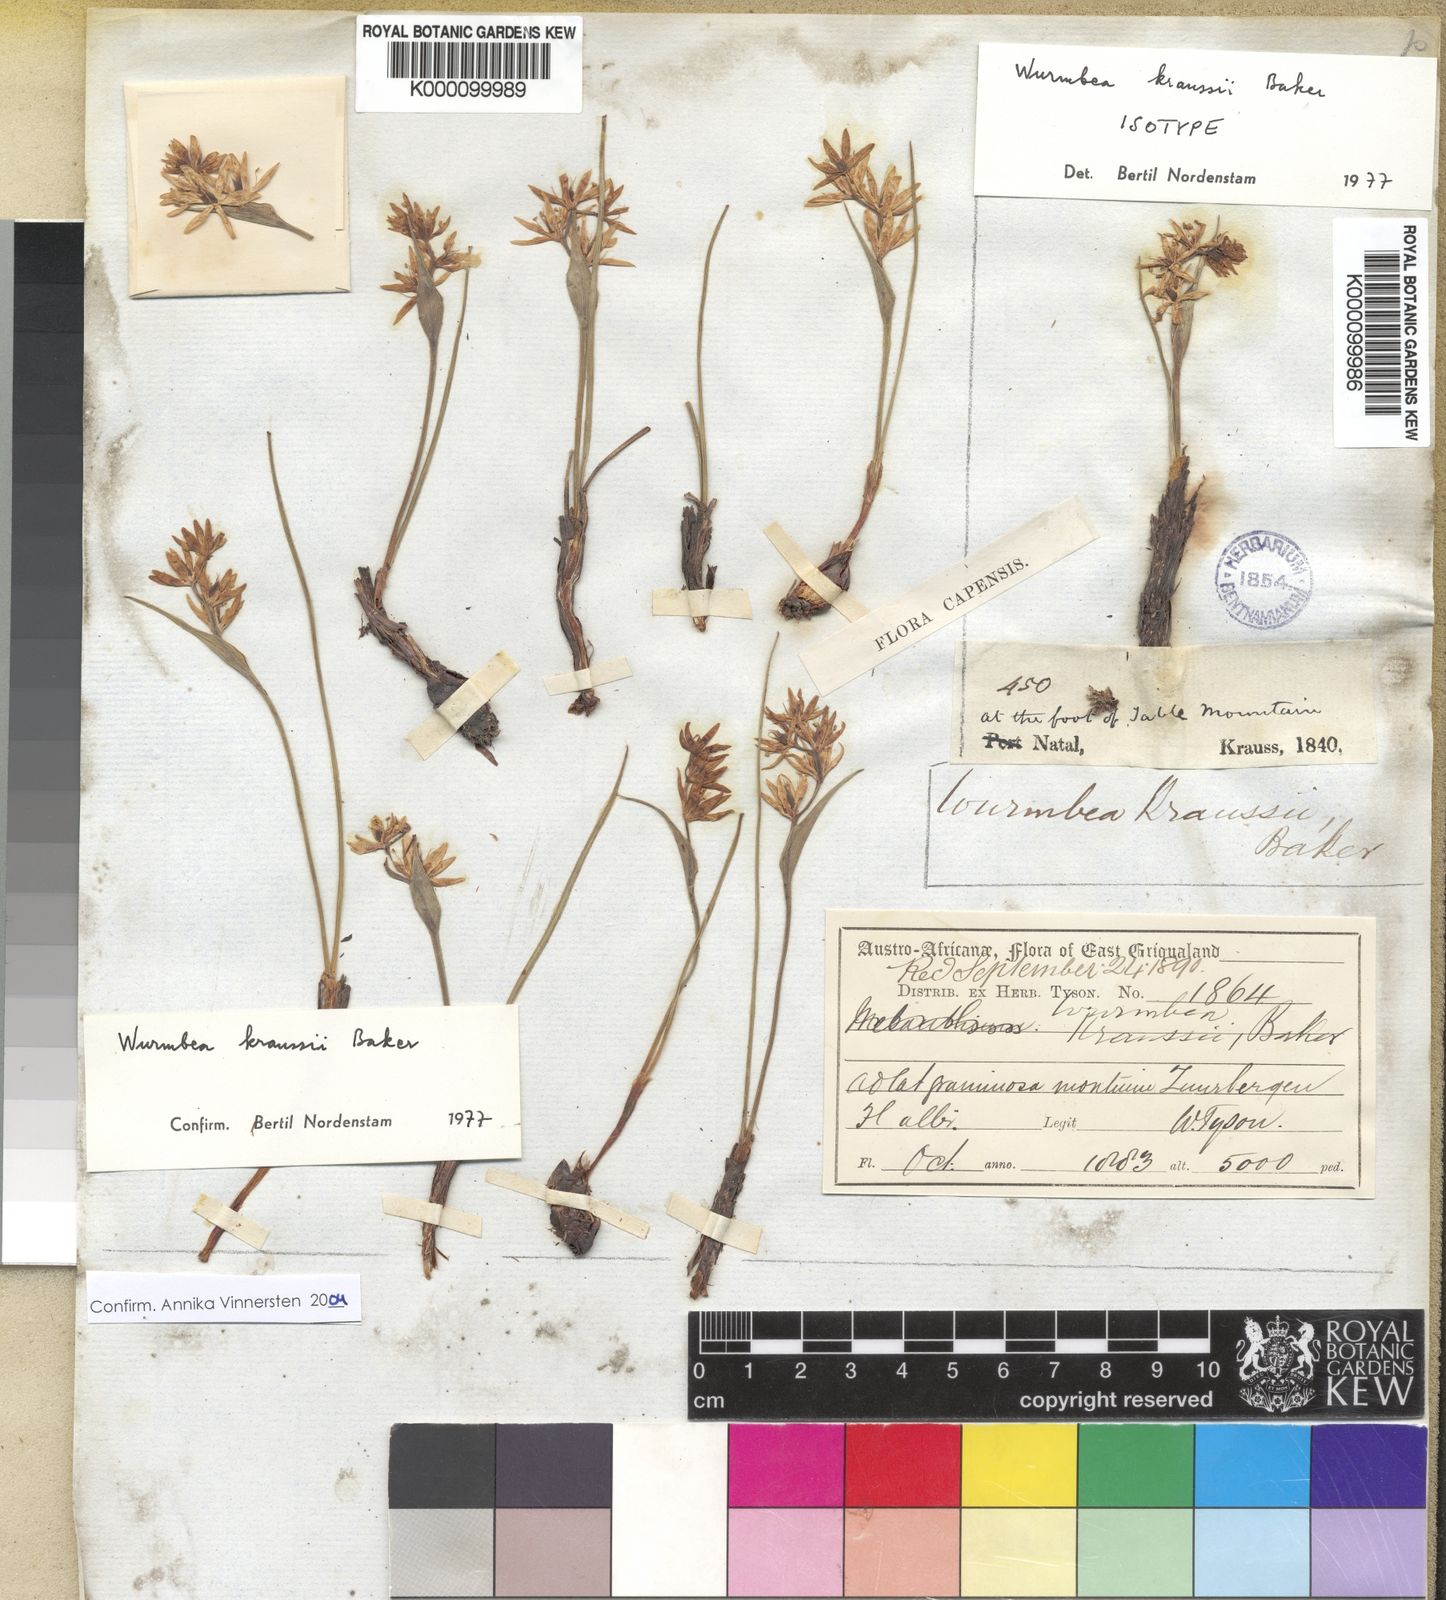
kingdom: Plantae
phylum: Tracheophyta
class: Liliopsida
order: Liliales
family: Colchicaceae
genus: Wurmbea
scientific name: Wurmbea kraussii
